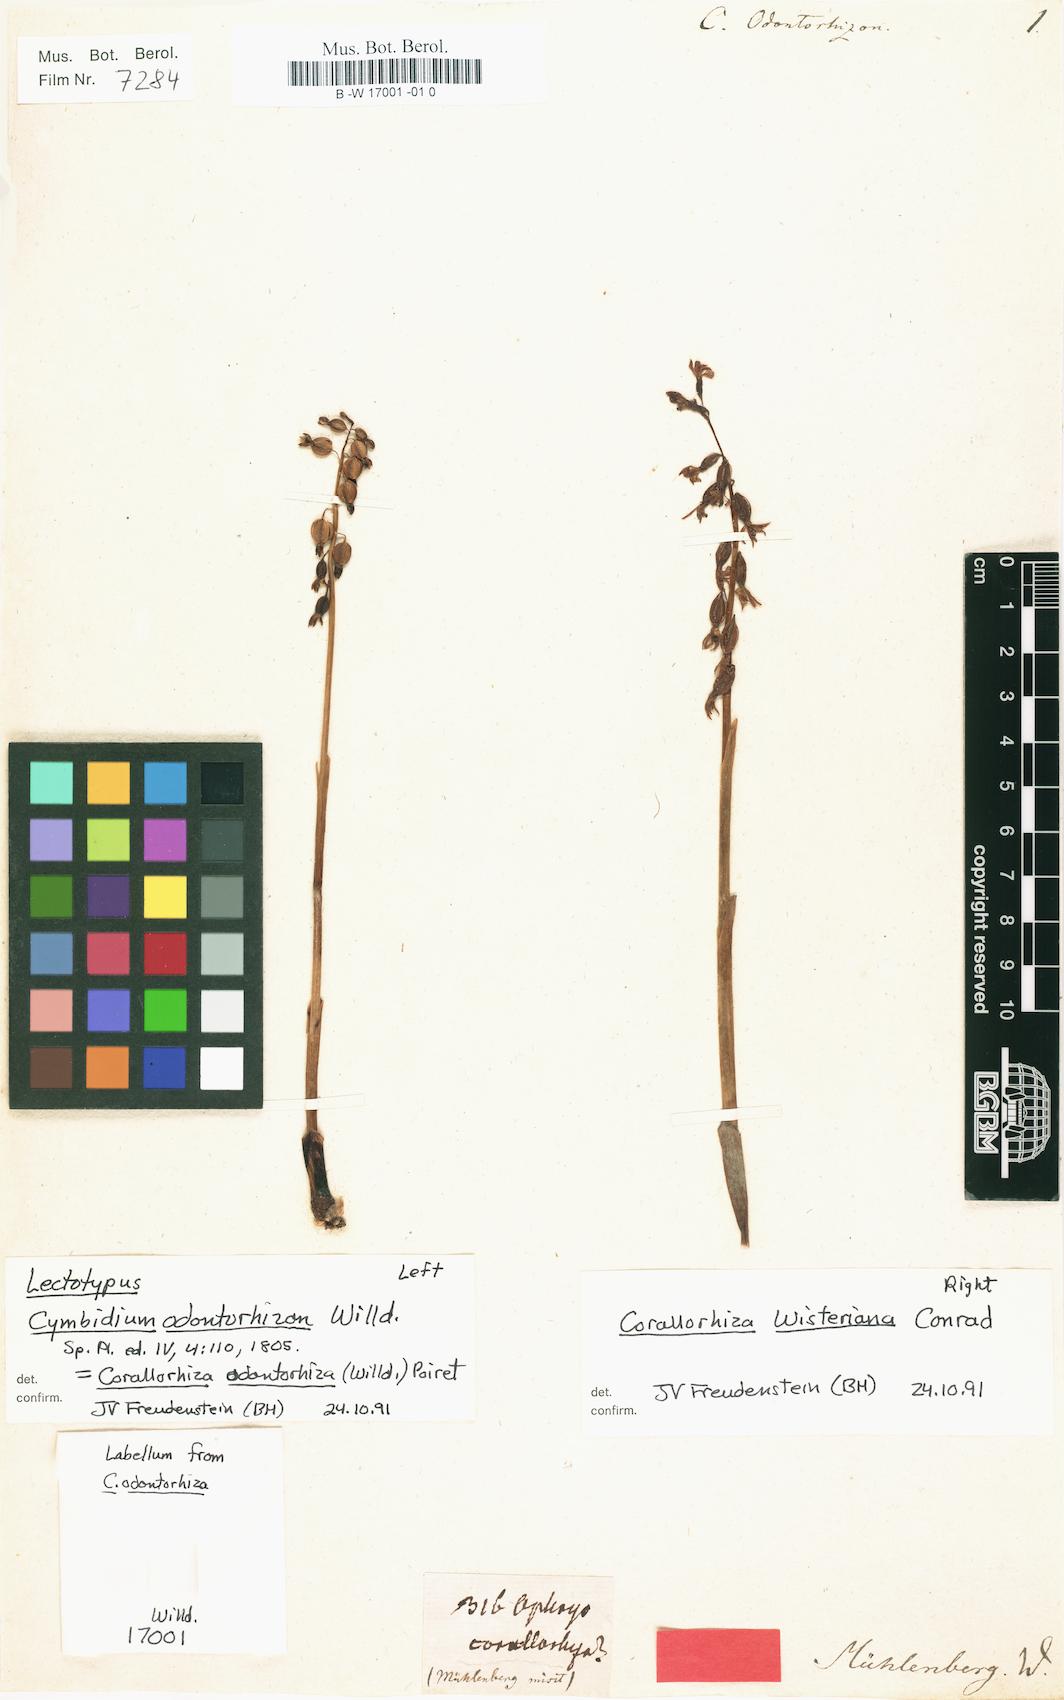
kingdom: Plantae
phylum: Tracheophyta
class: Liliopsida
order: Asparagales
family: Orchidaceae
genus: Corallorhiza
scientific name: Corallorhiza odontorhiza
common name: Autumn coralroot
